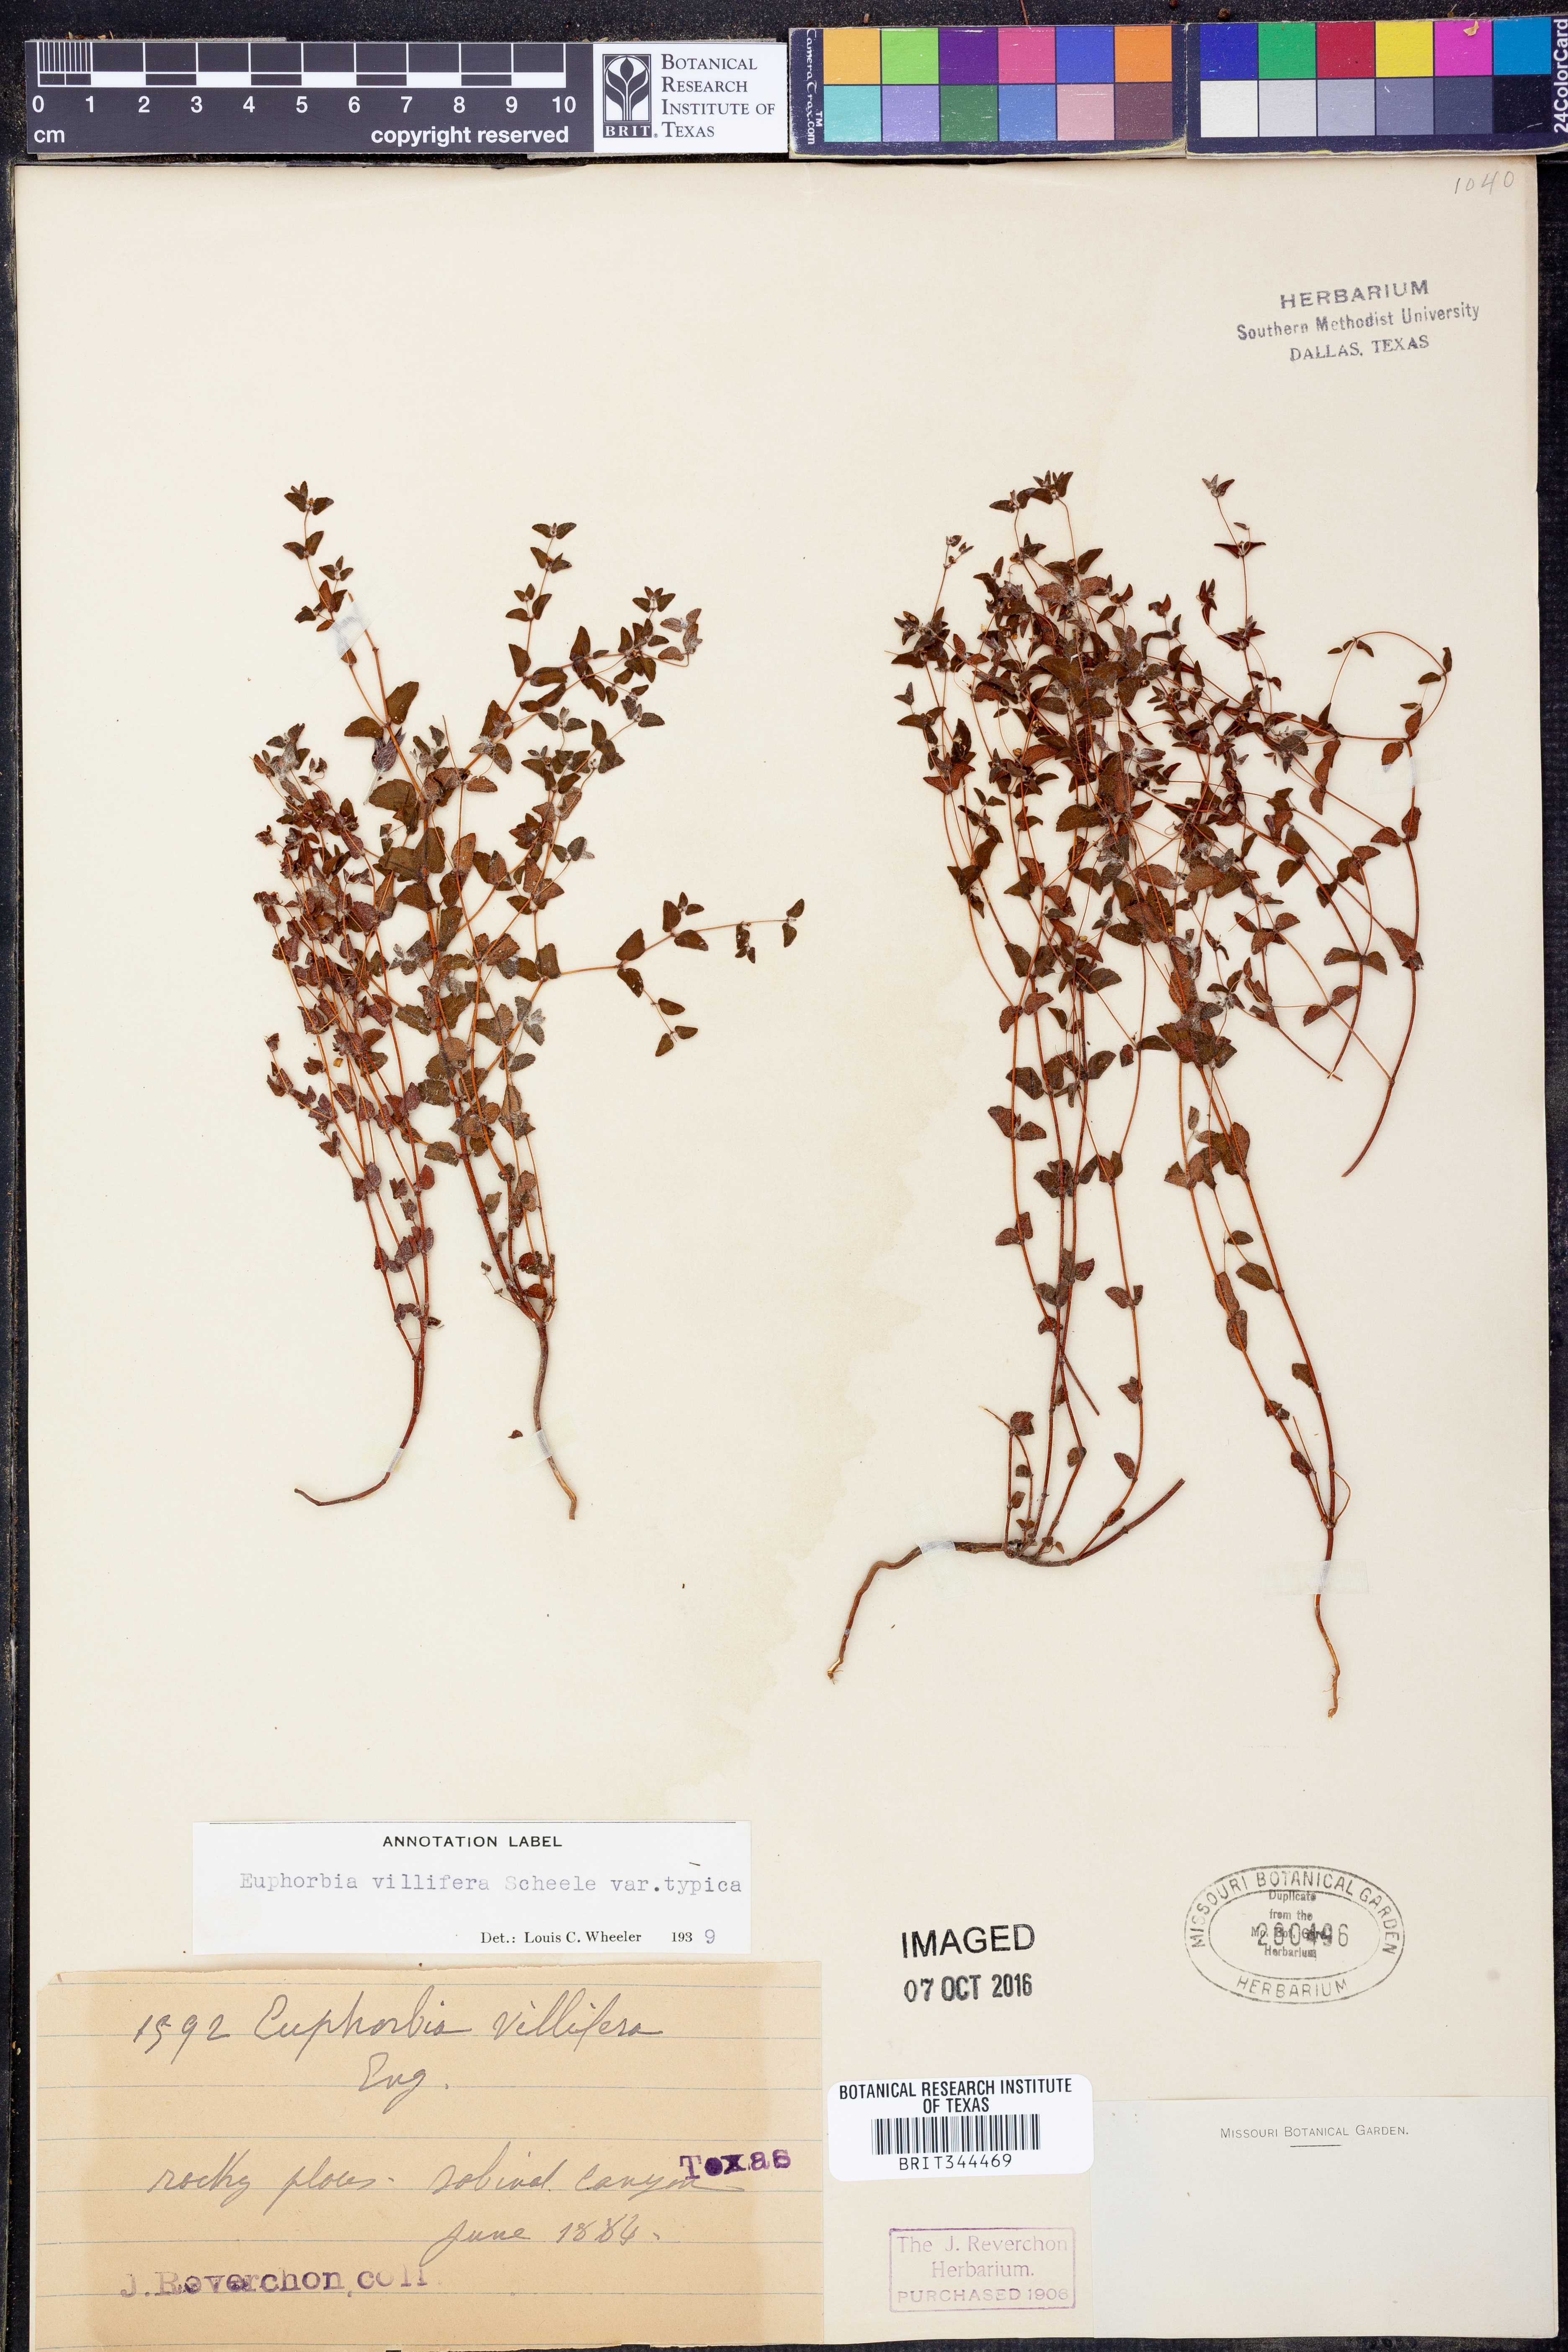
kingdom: Plantae
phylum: Tracheophyta
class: Magnoliopsida
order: Malpighiales
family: Euphorbiaceae
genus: Euphorbia
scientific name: Euphorbia micractina
